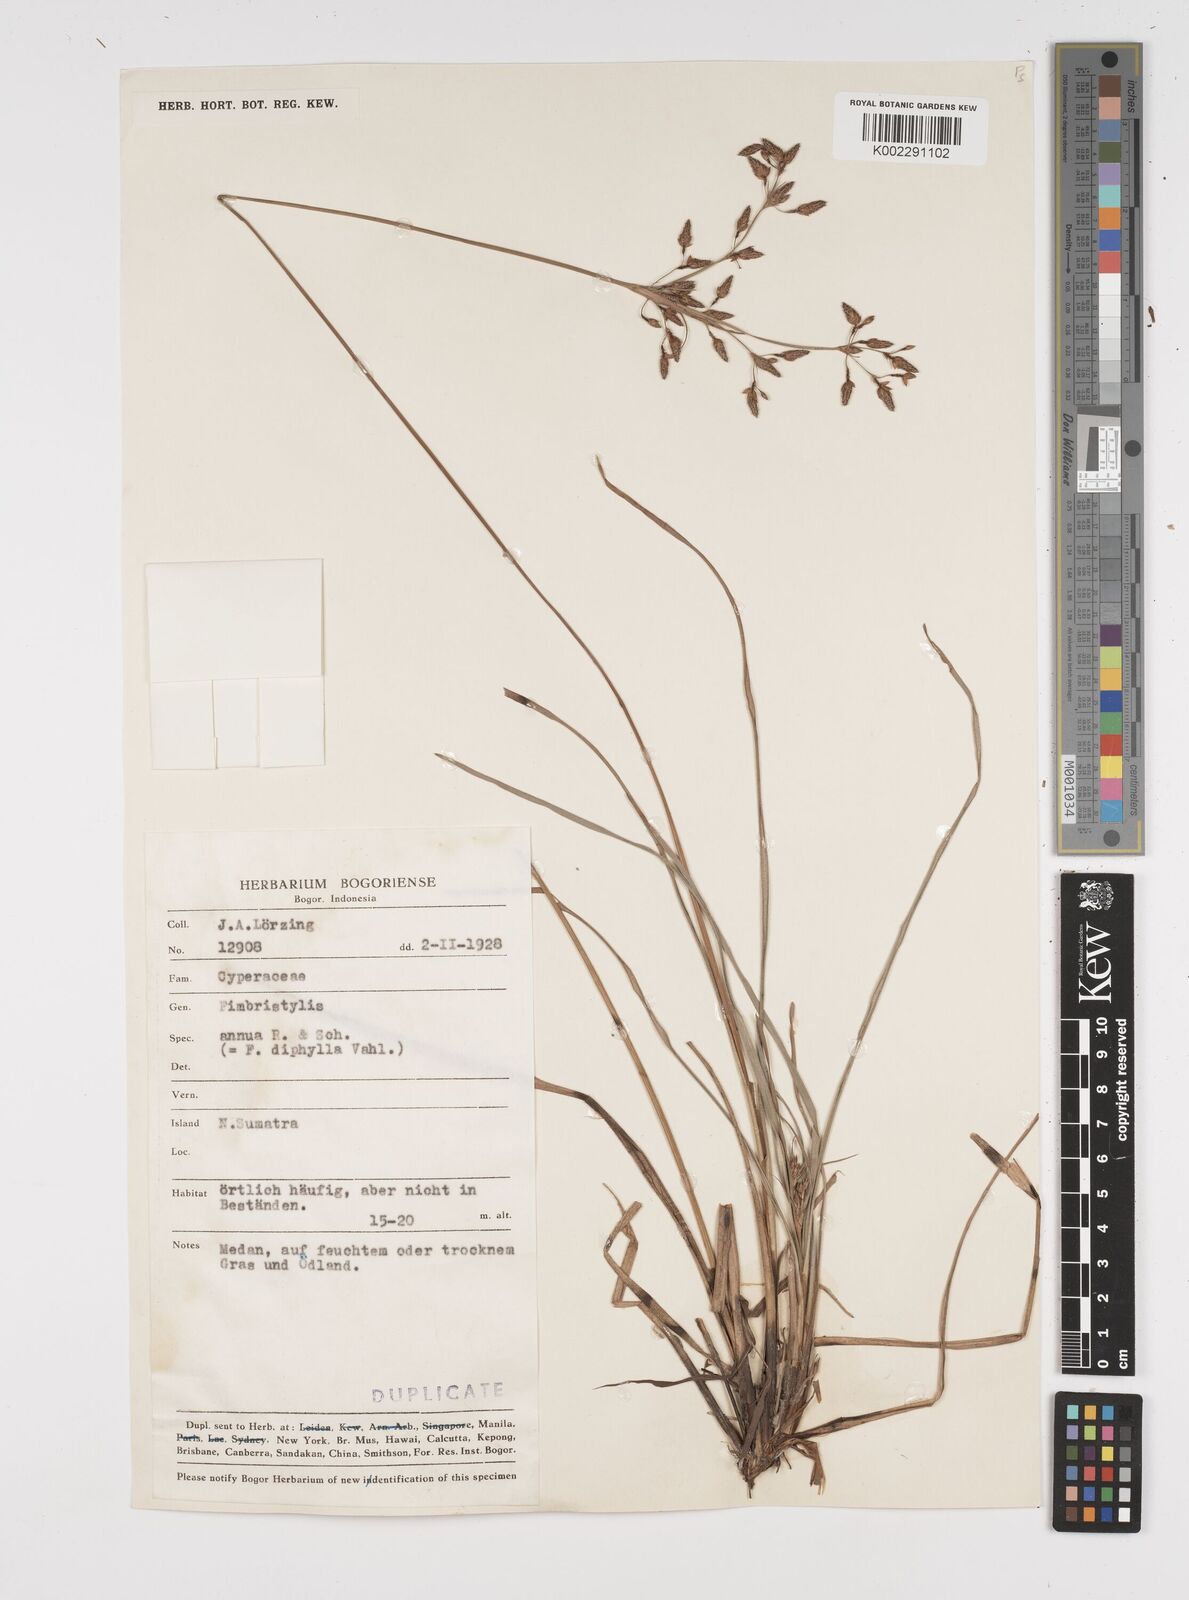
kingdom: Plantae
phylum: Tracheophyta
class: Liliopsida
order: Poales
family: Cyperaceae
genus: Fimbristylis
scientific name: Fimbristylis dichotoma
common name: Forked fimbry
